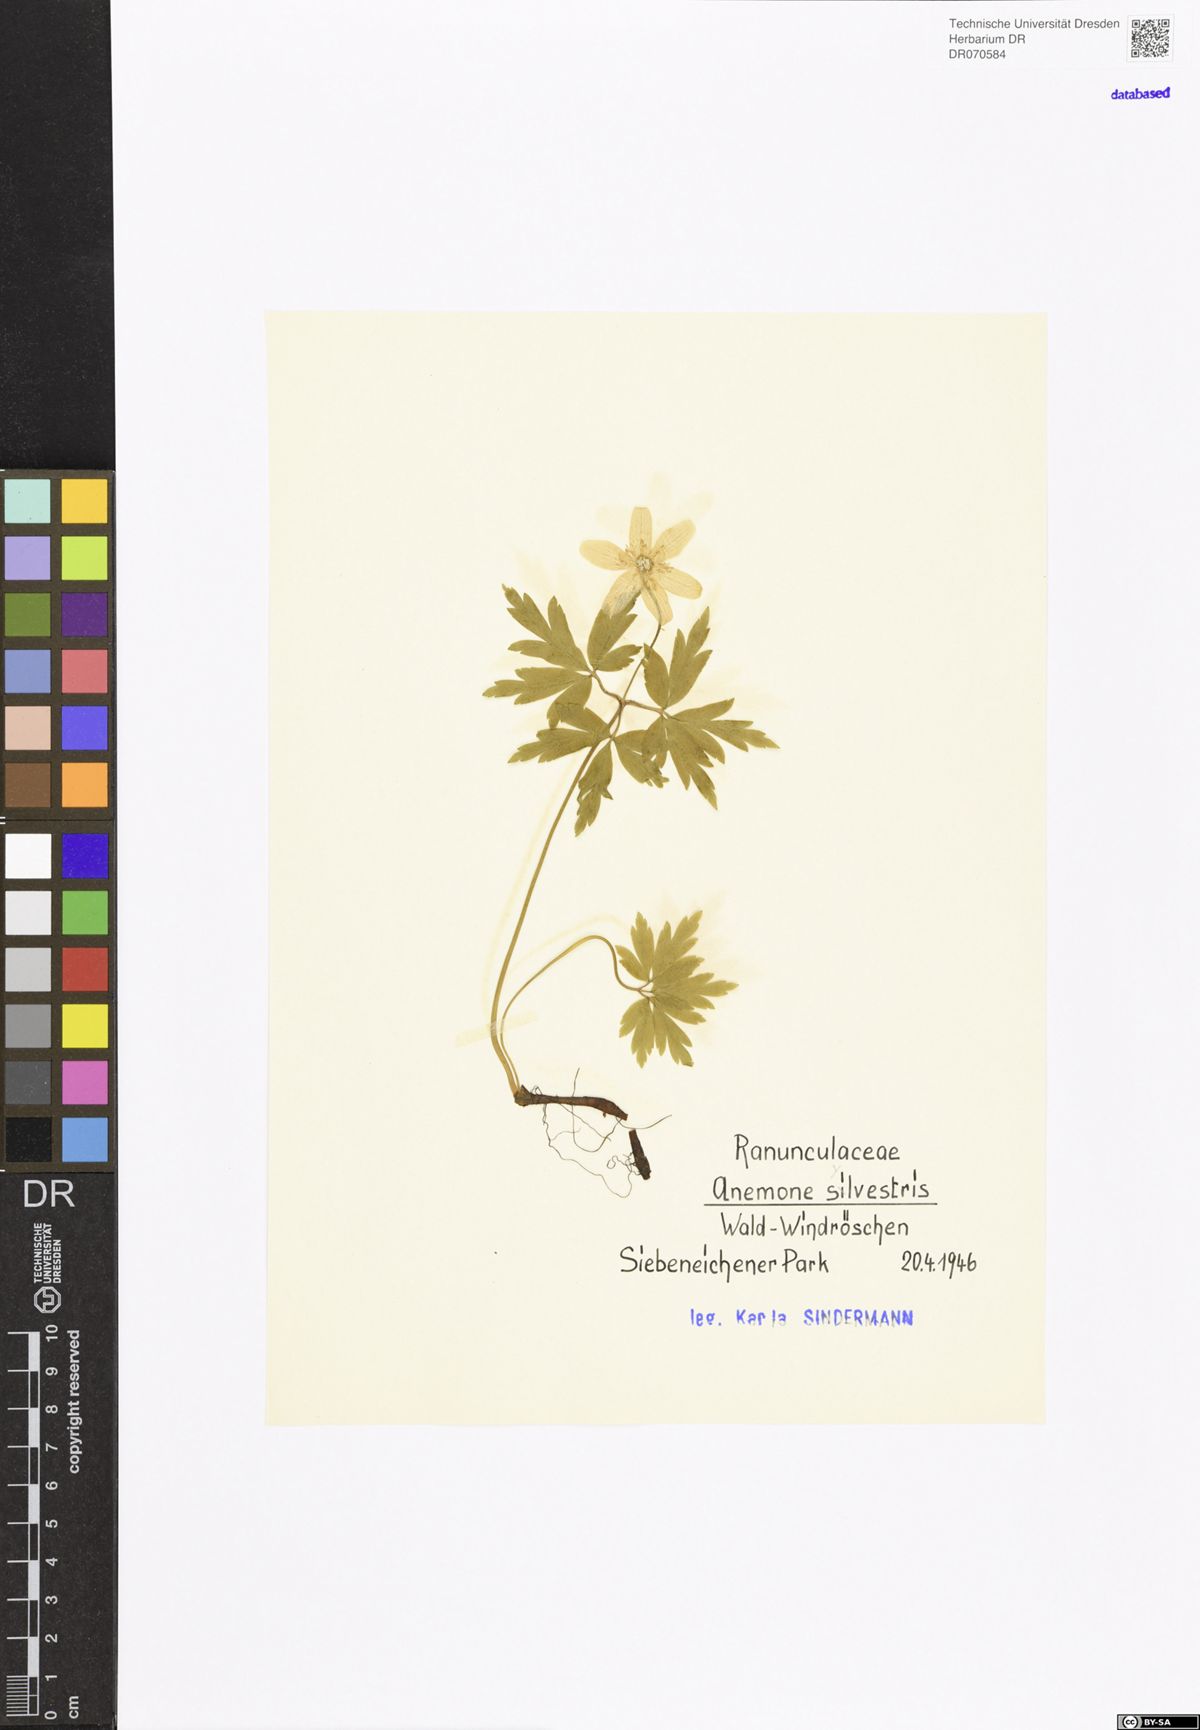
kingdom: Plantae
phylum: Tracheophyta
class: Magnoliopsida
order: Ranunculales
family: Ranunculaceae
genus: Anemone
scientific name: Anemone nemorosa
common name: Wood anemone
